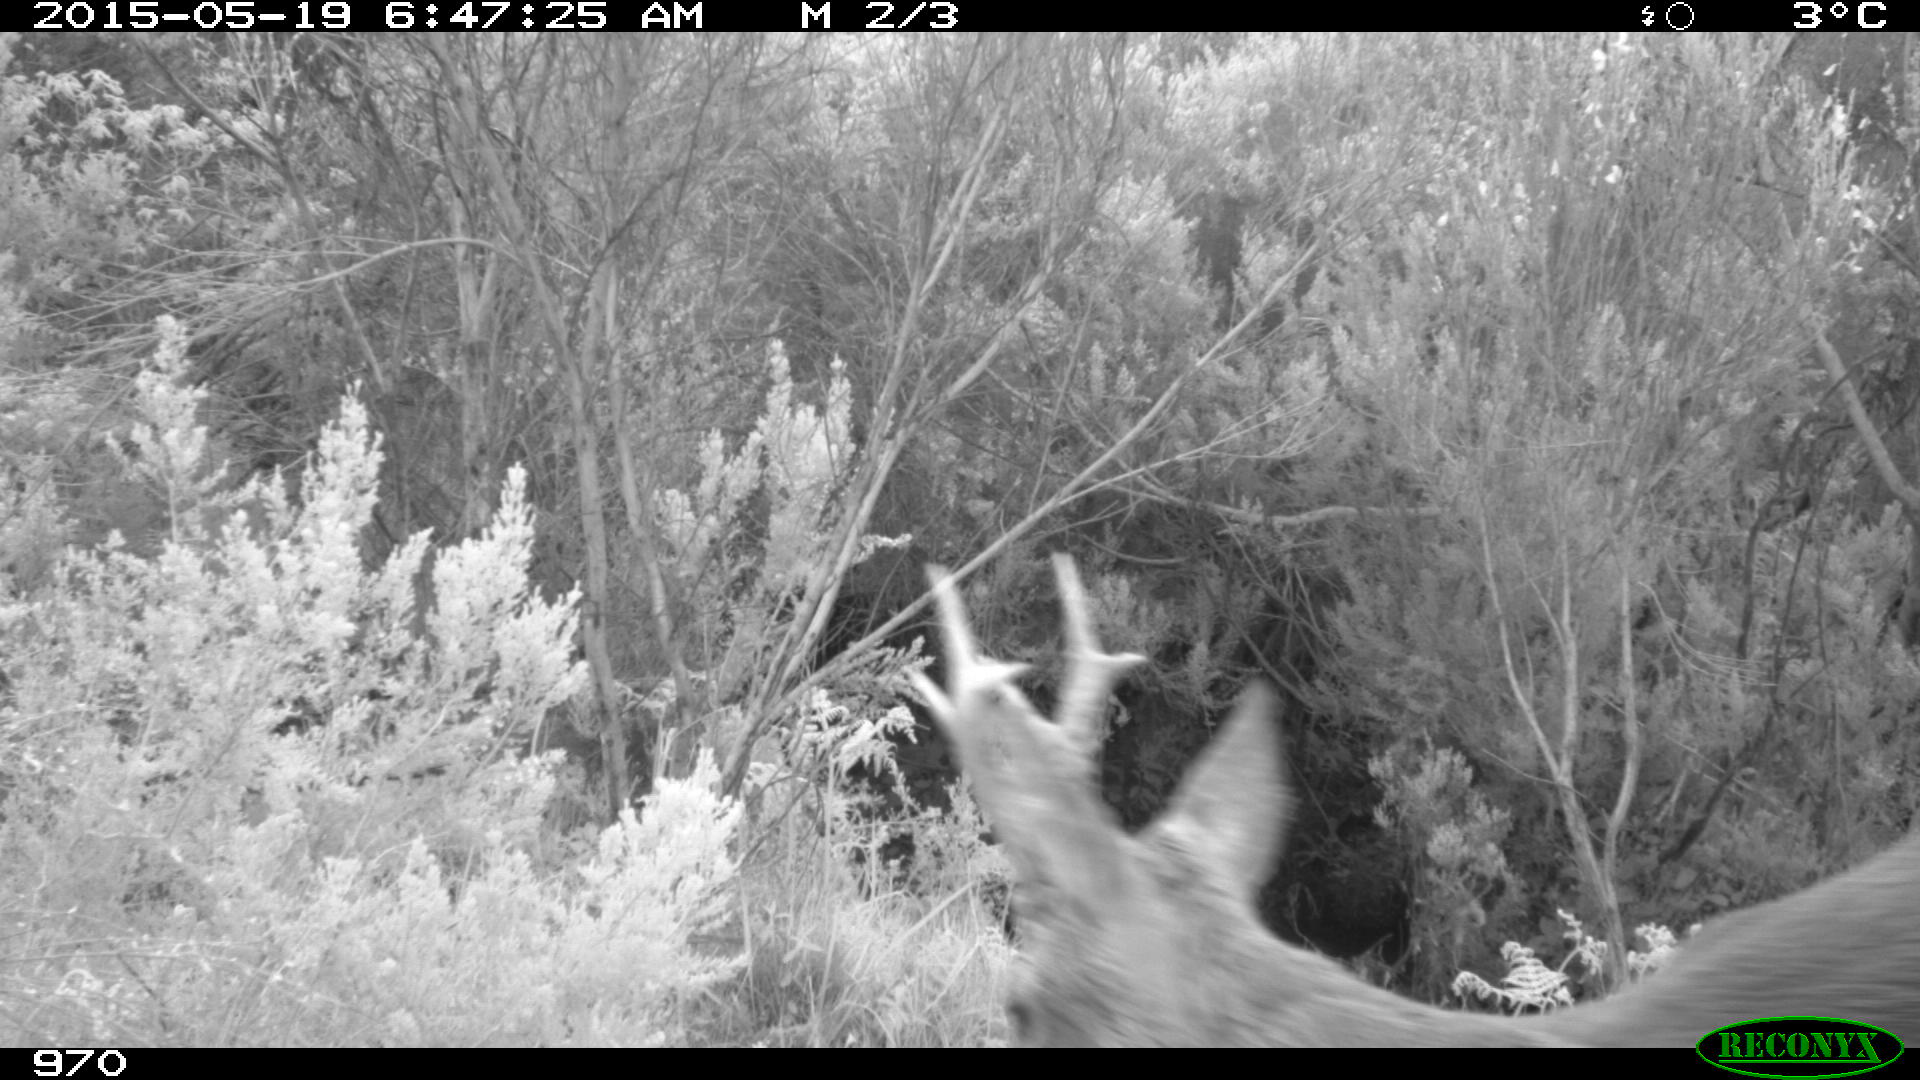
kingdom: Animalia
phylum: Chordata
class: Mammalia
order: Artiodactyla
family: Cervidae
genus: Capreolus
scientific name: Capreolus capreolus
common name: Western roe deer
